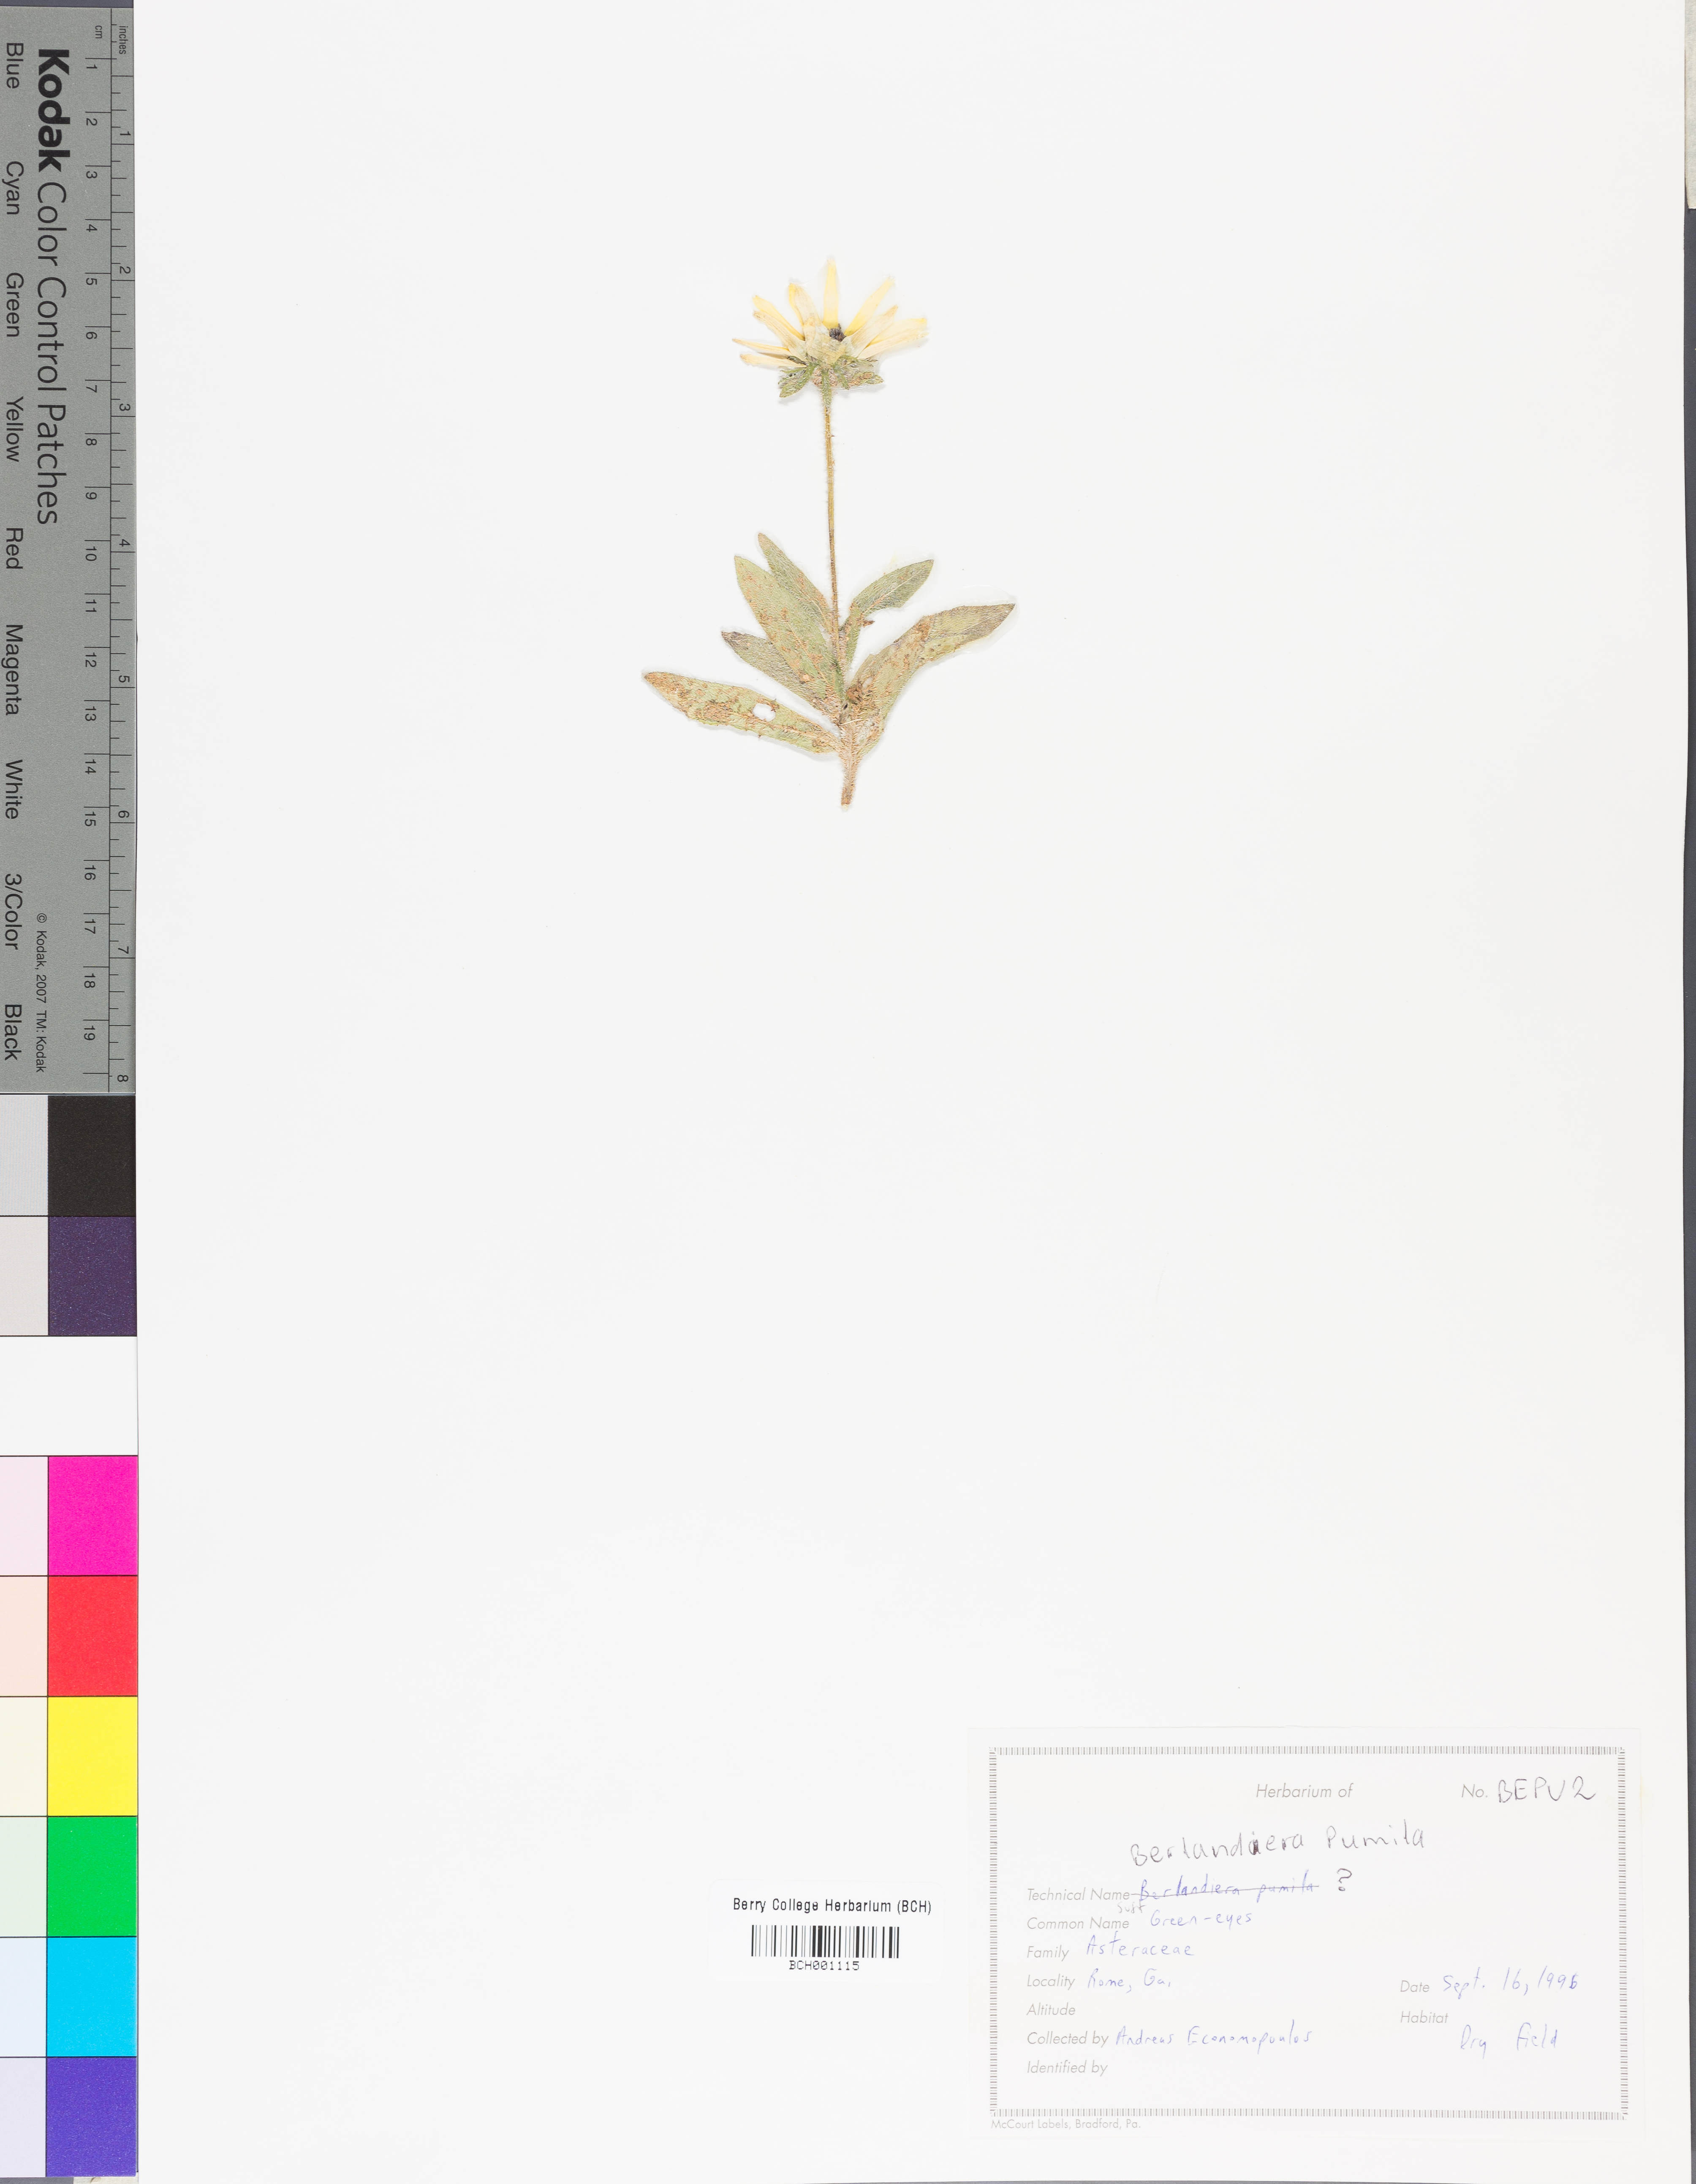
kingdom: Plantae
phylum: Tracheophyta
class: Magnoliopsida
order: Asterales
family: Asteraceae
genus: Berlandiera
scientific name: Berlandiera pumila
